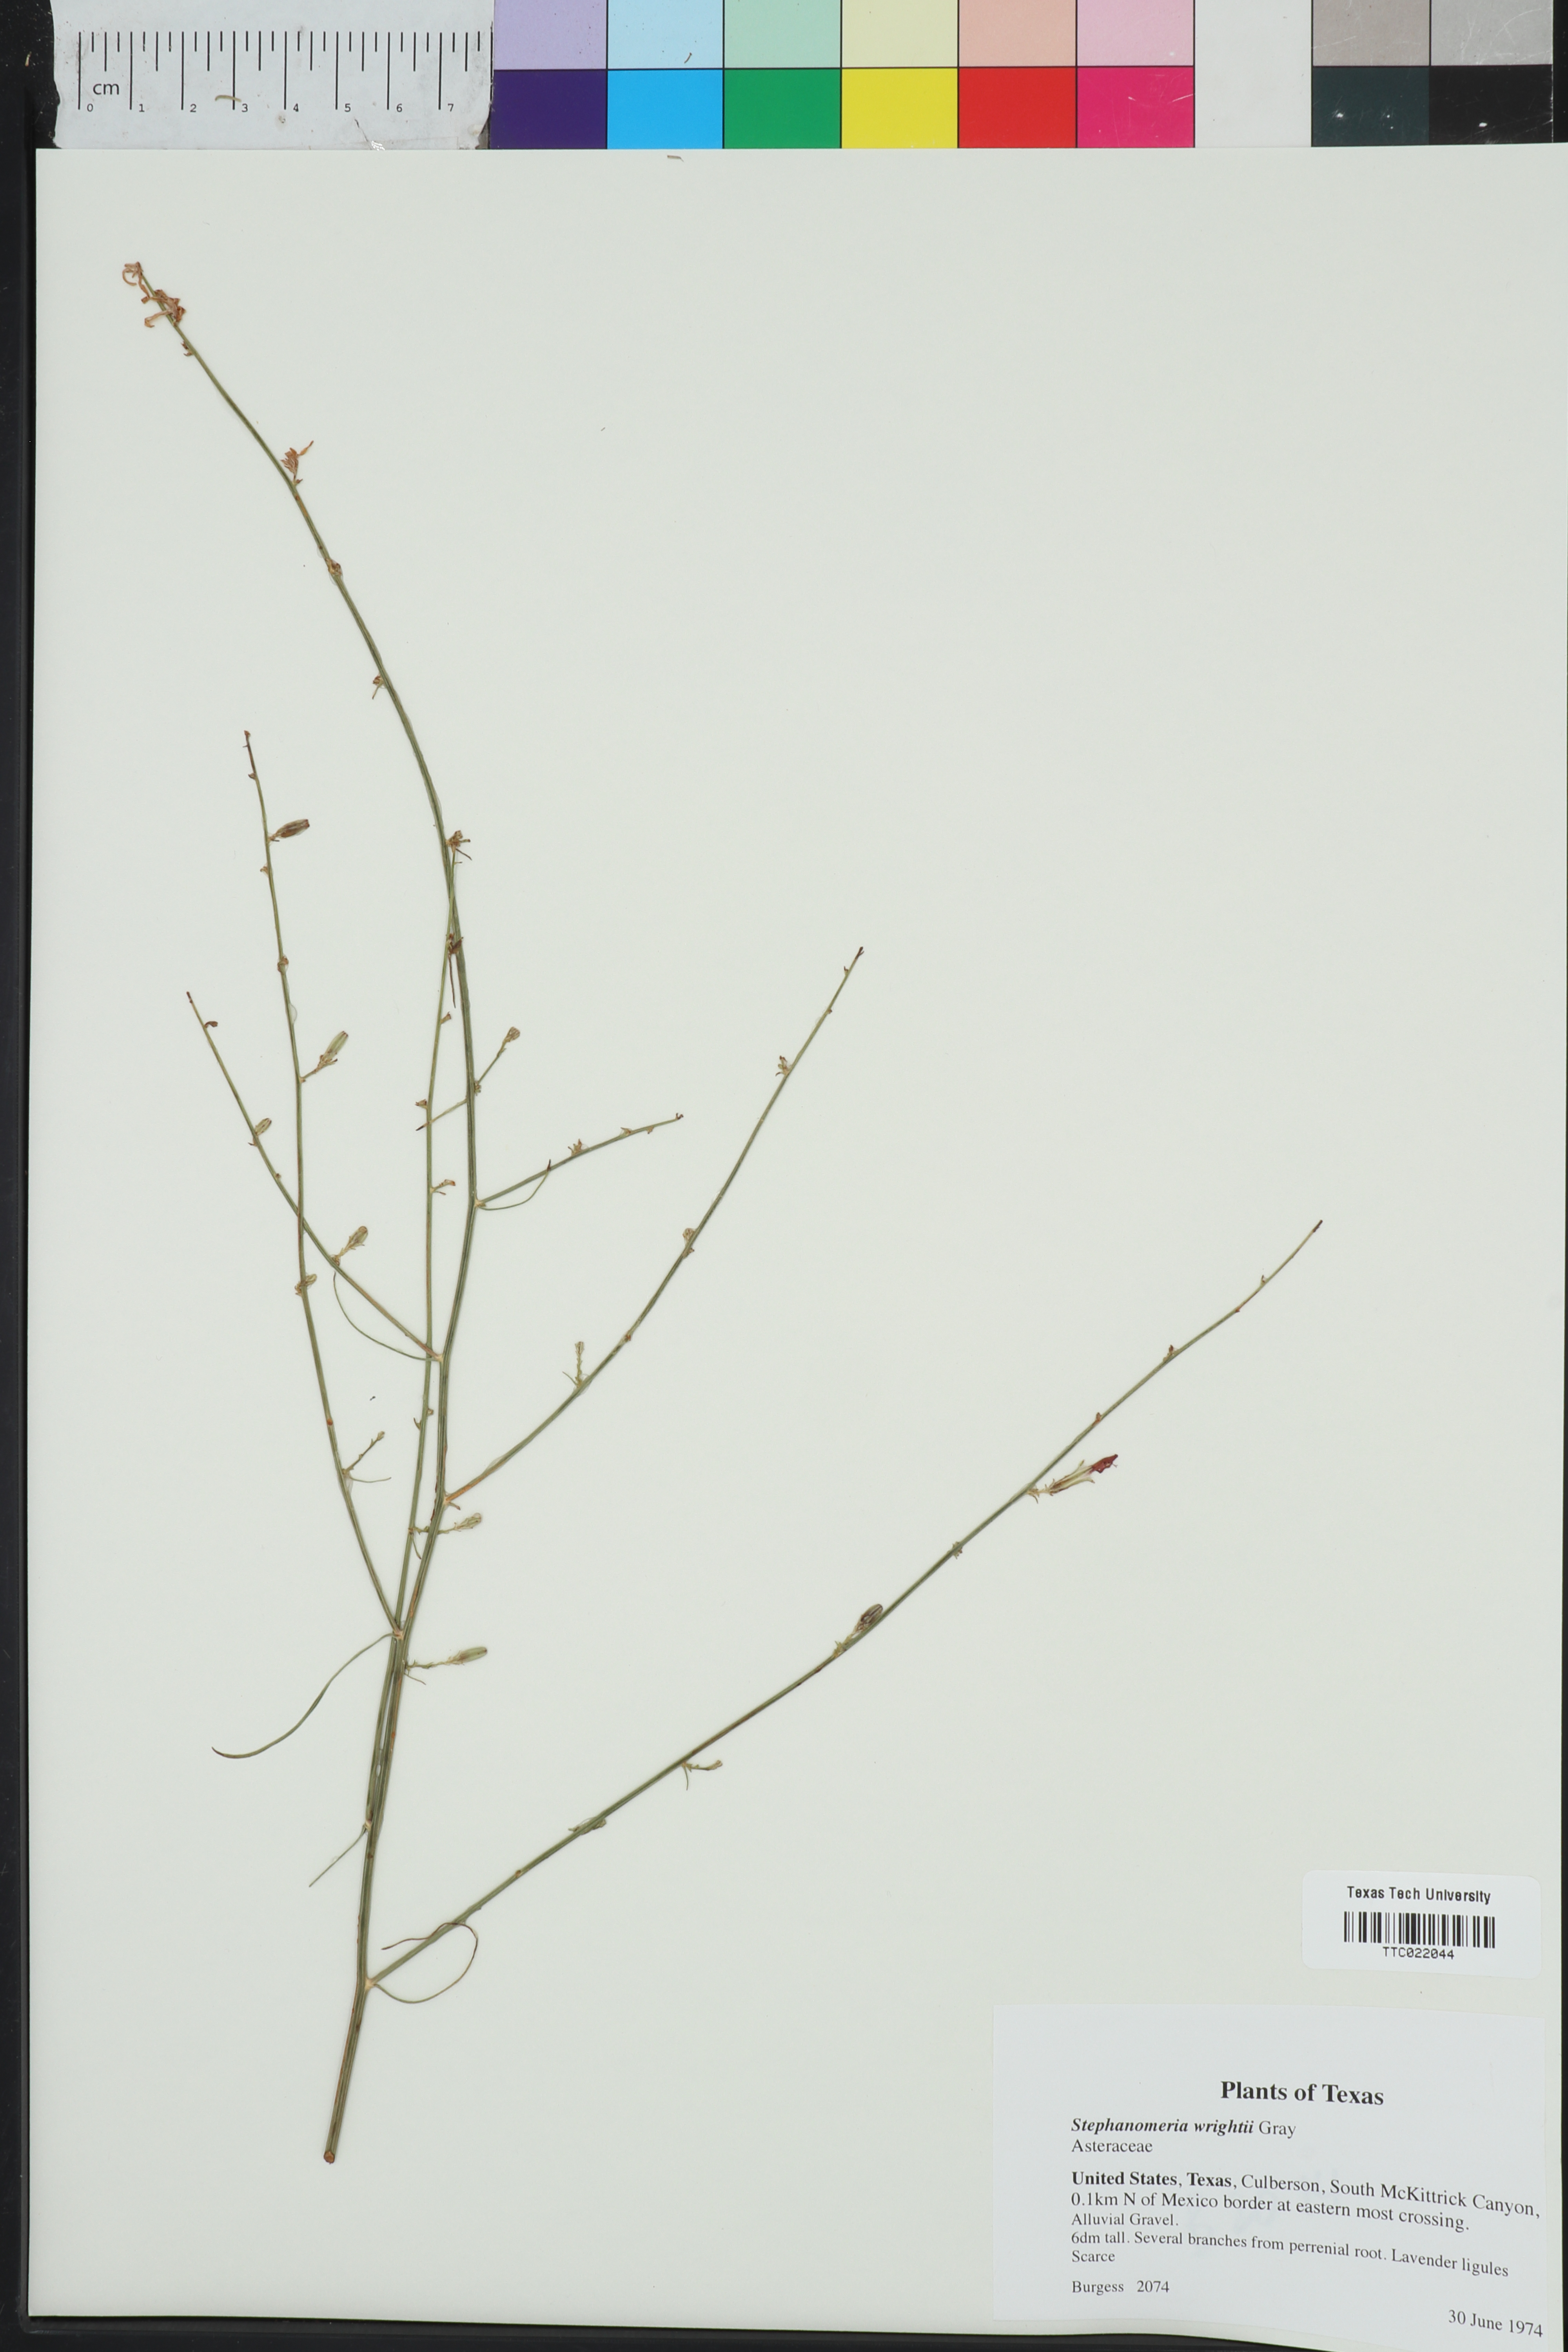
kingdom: Plantae
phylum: Tracheophyta
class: Magnoliopsida
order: Asterales
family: Asteraceae
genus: Stephanomeria
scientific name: Stephanomeria tenuifolia
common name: Slender wirelettuce
